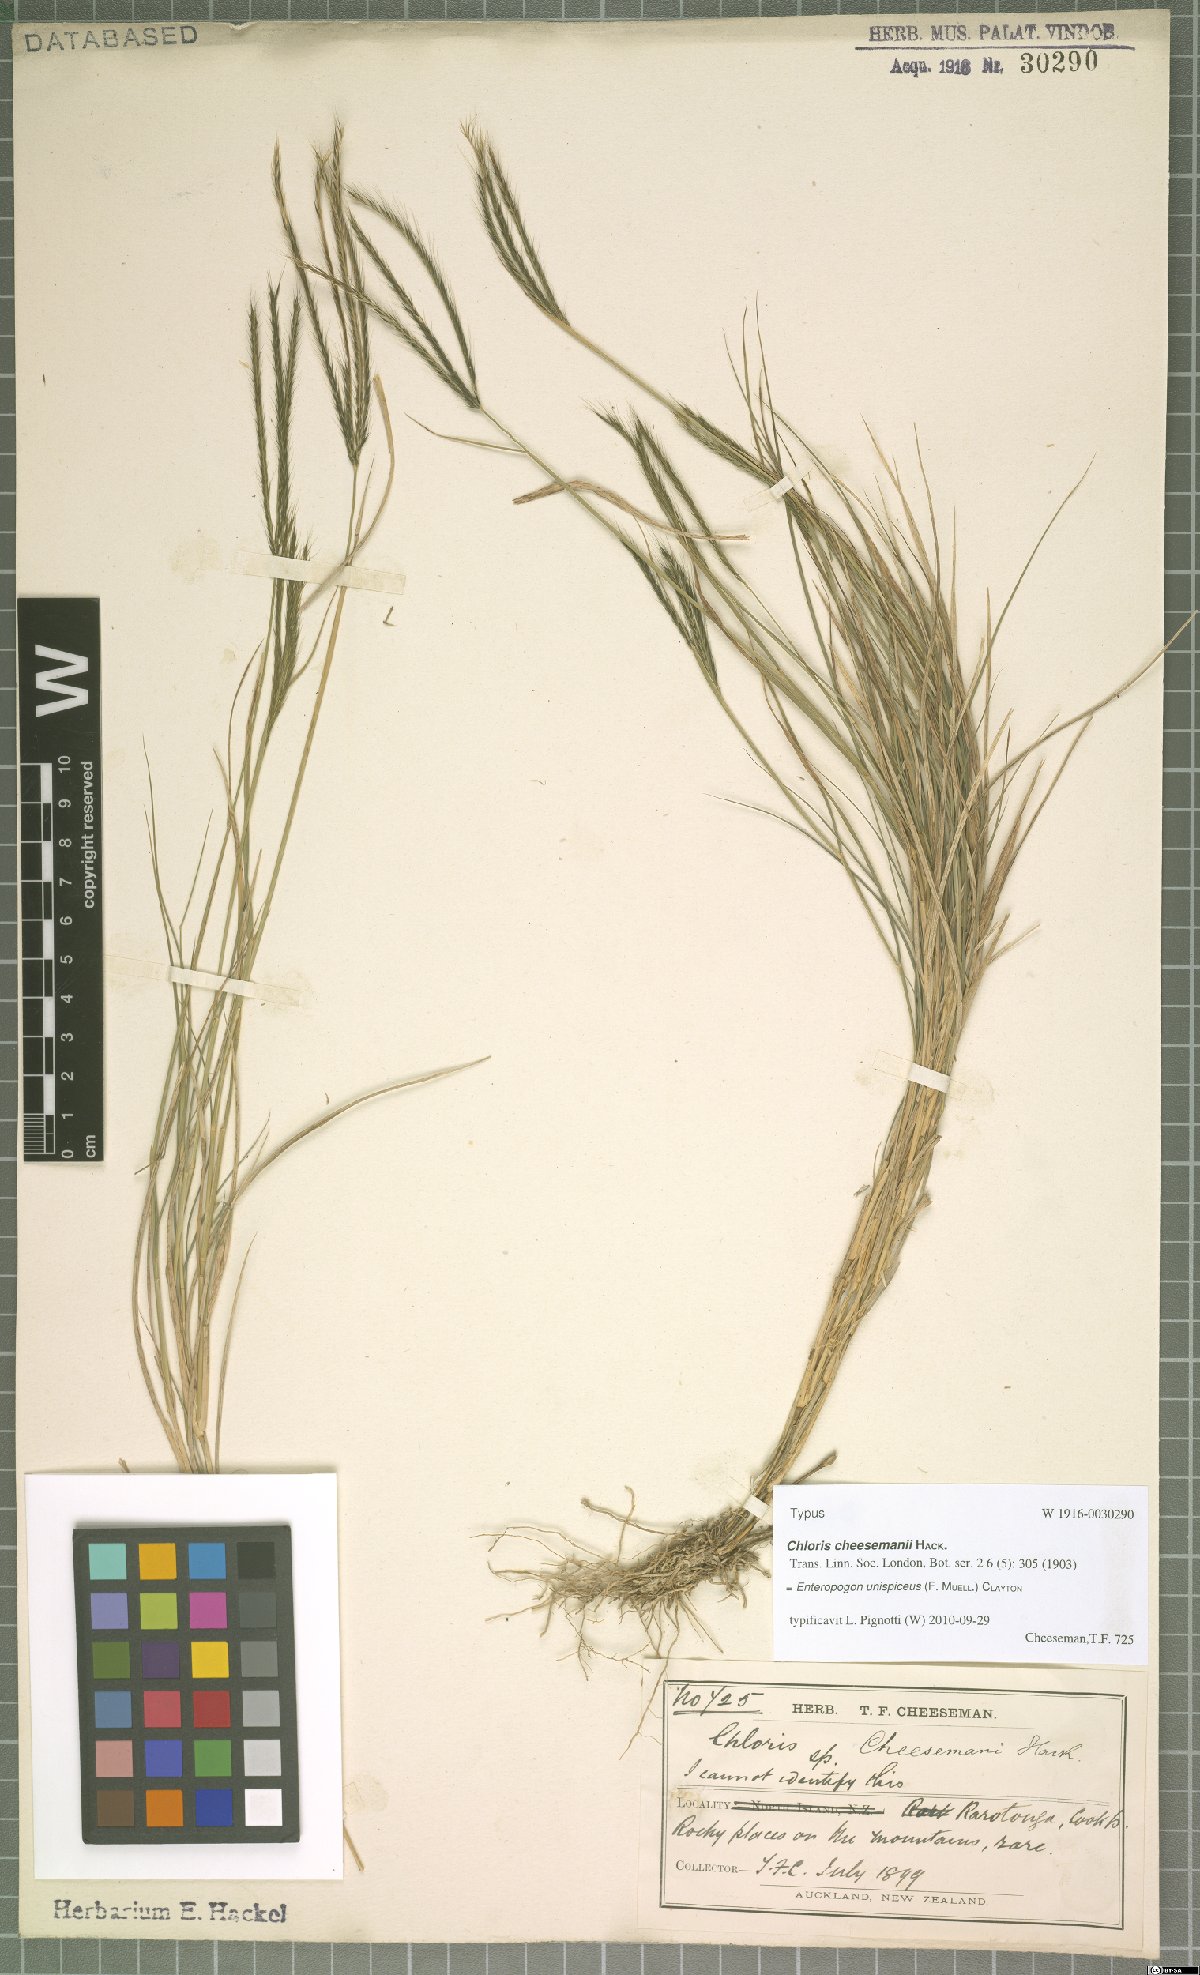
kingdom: Plantae
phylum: Tracheophyta
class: Liliopsida
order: Poales
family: Poaceae
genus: Enteropogon
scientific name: Enteropogon unispiceus
